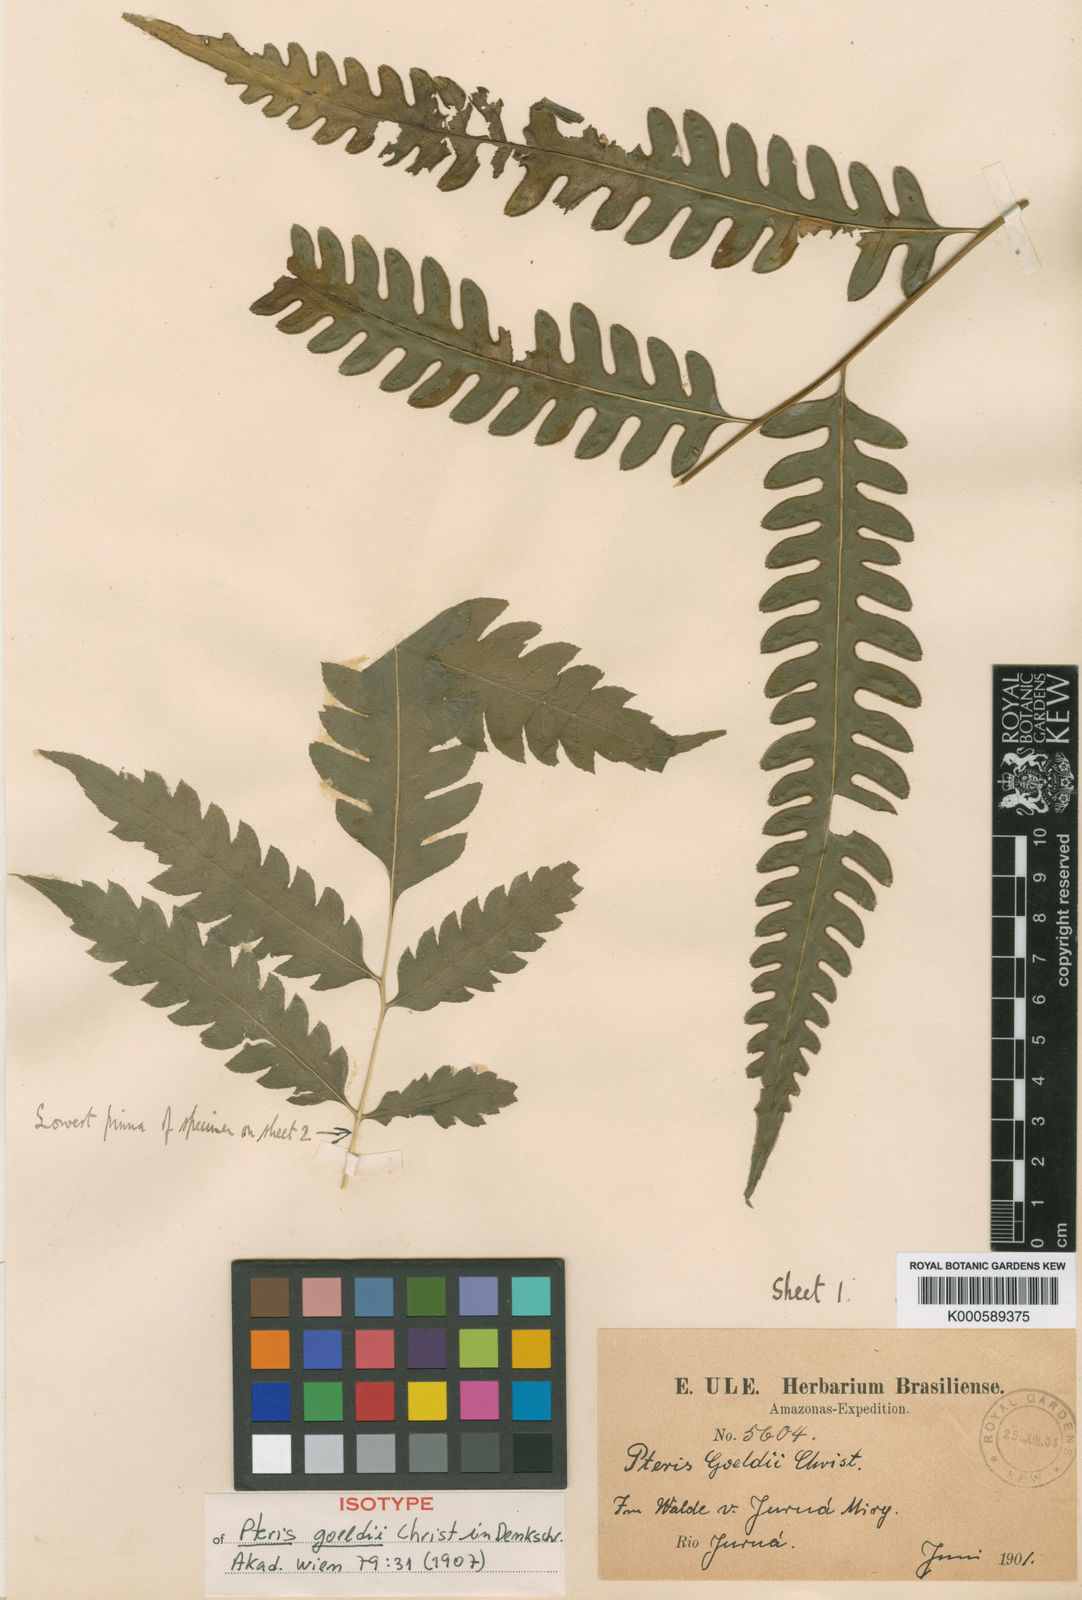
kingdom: Plantae
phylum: Tracheophyta
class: Polypodiopsida
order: Polypodiales
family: Pteridaceae
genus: Pteris
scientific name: Pteris
